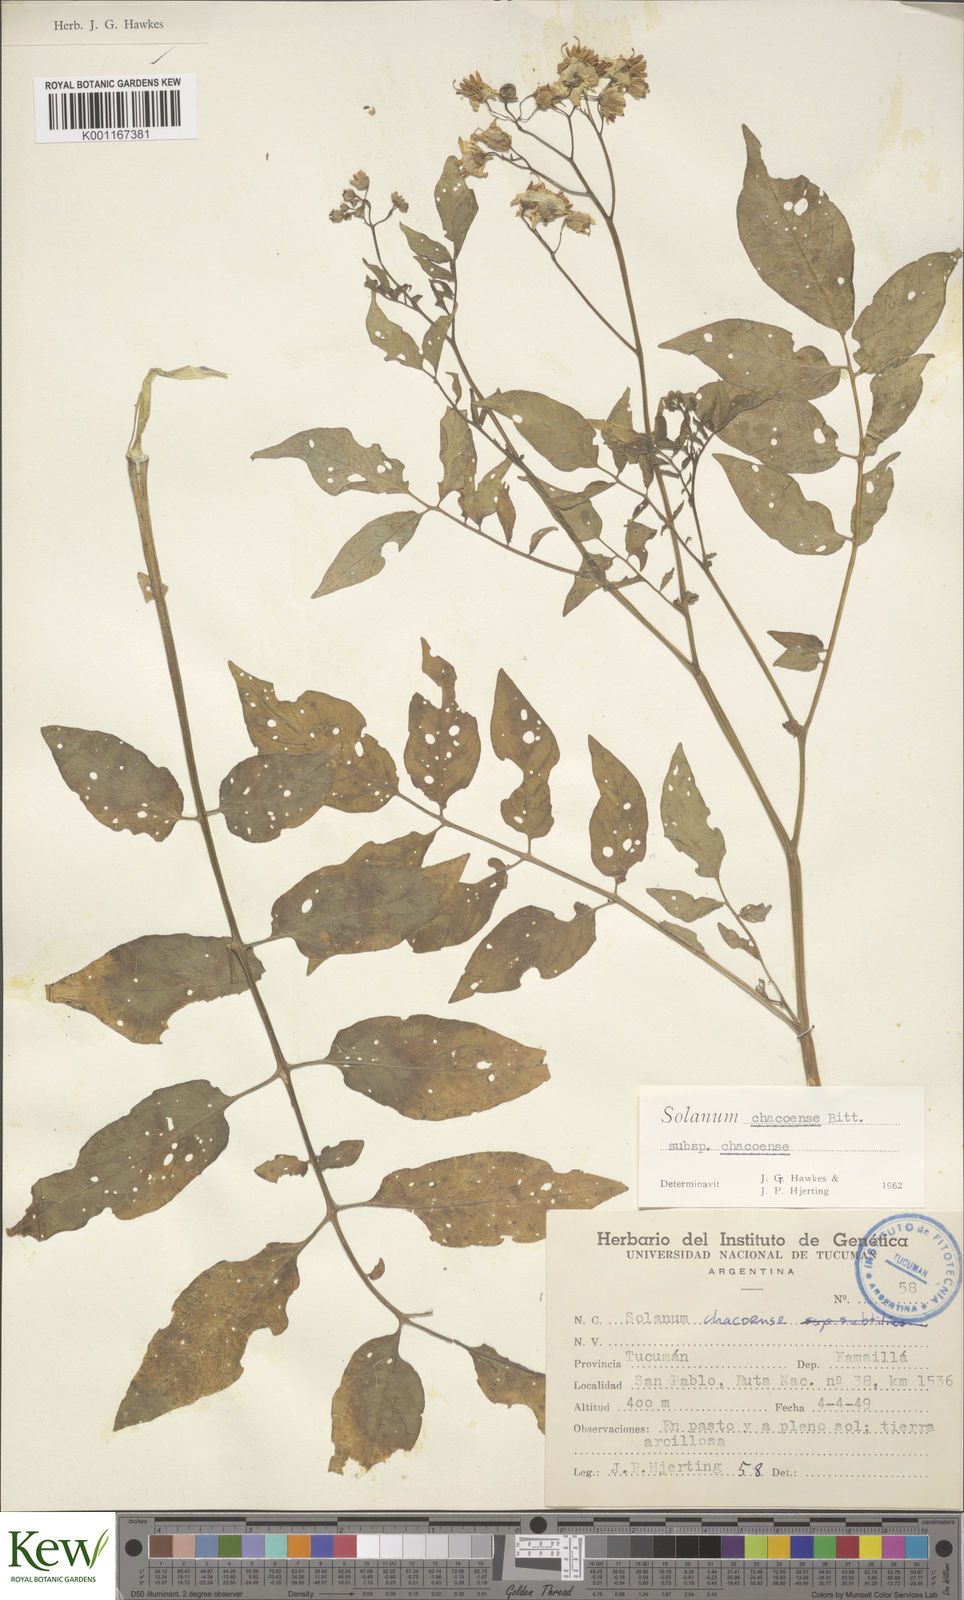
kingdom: Plantae
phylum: Tracheophyta
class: Magnoliopsida
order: Solanales
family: Solanaceae
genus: Solanum
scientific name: Solanum chacoense
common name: Chaco potato
